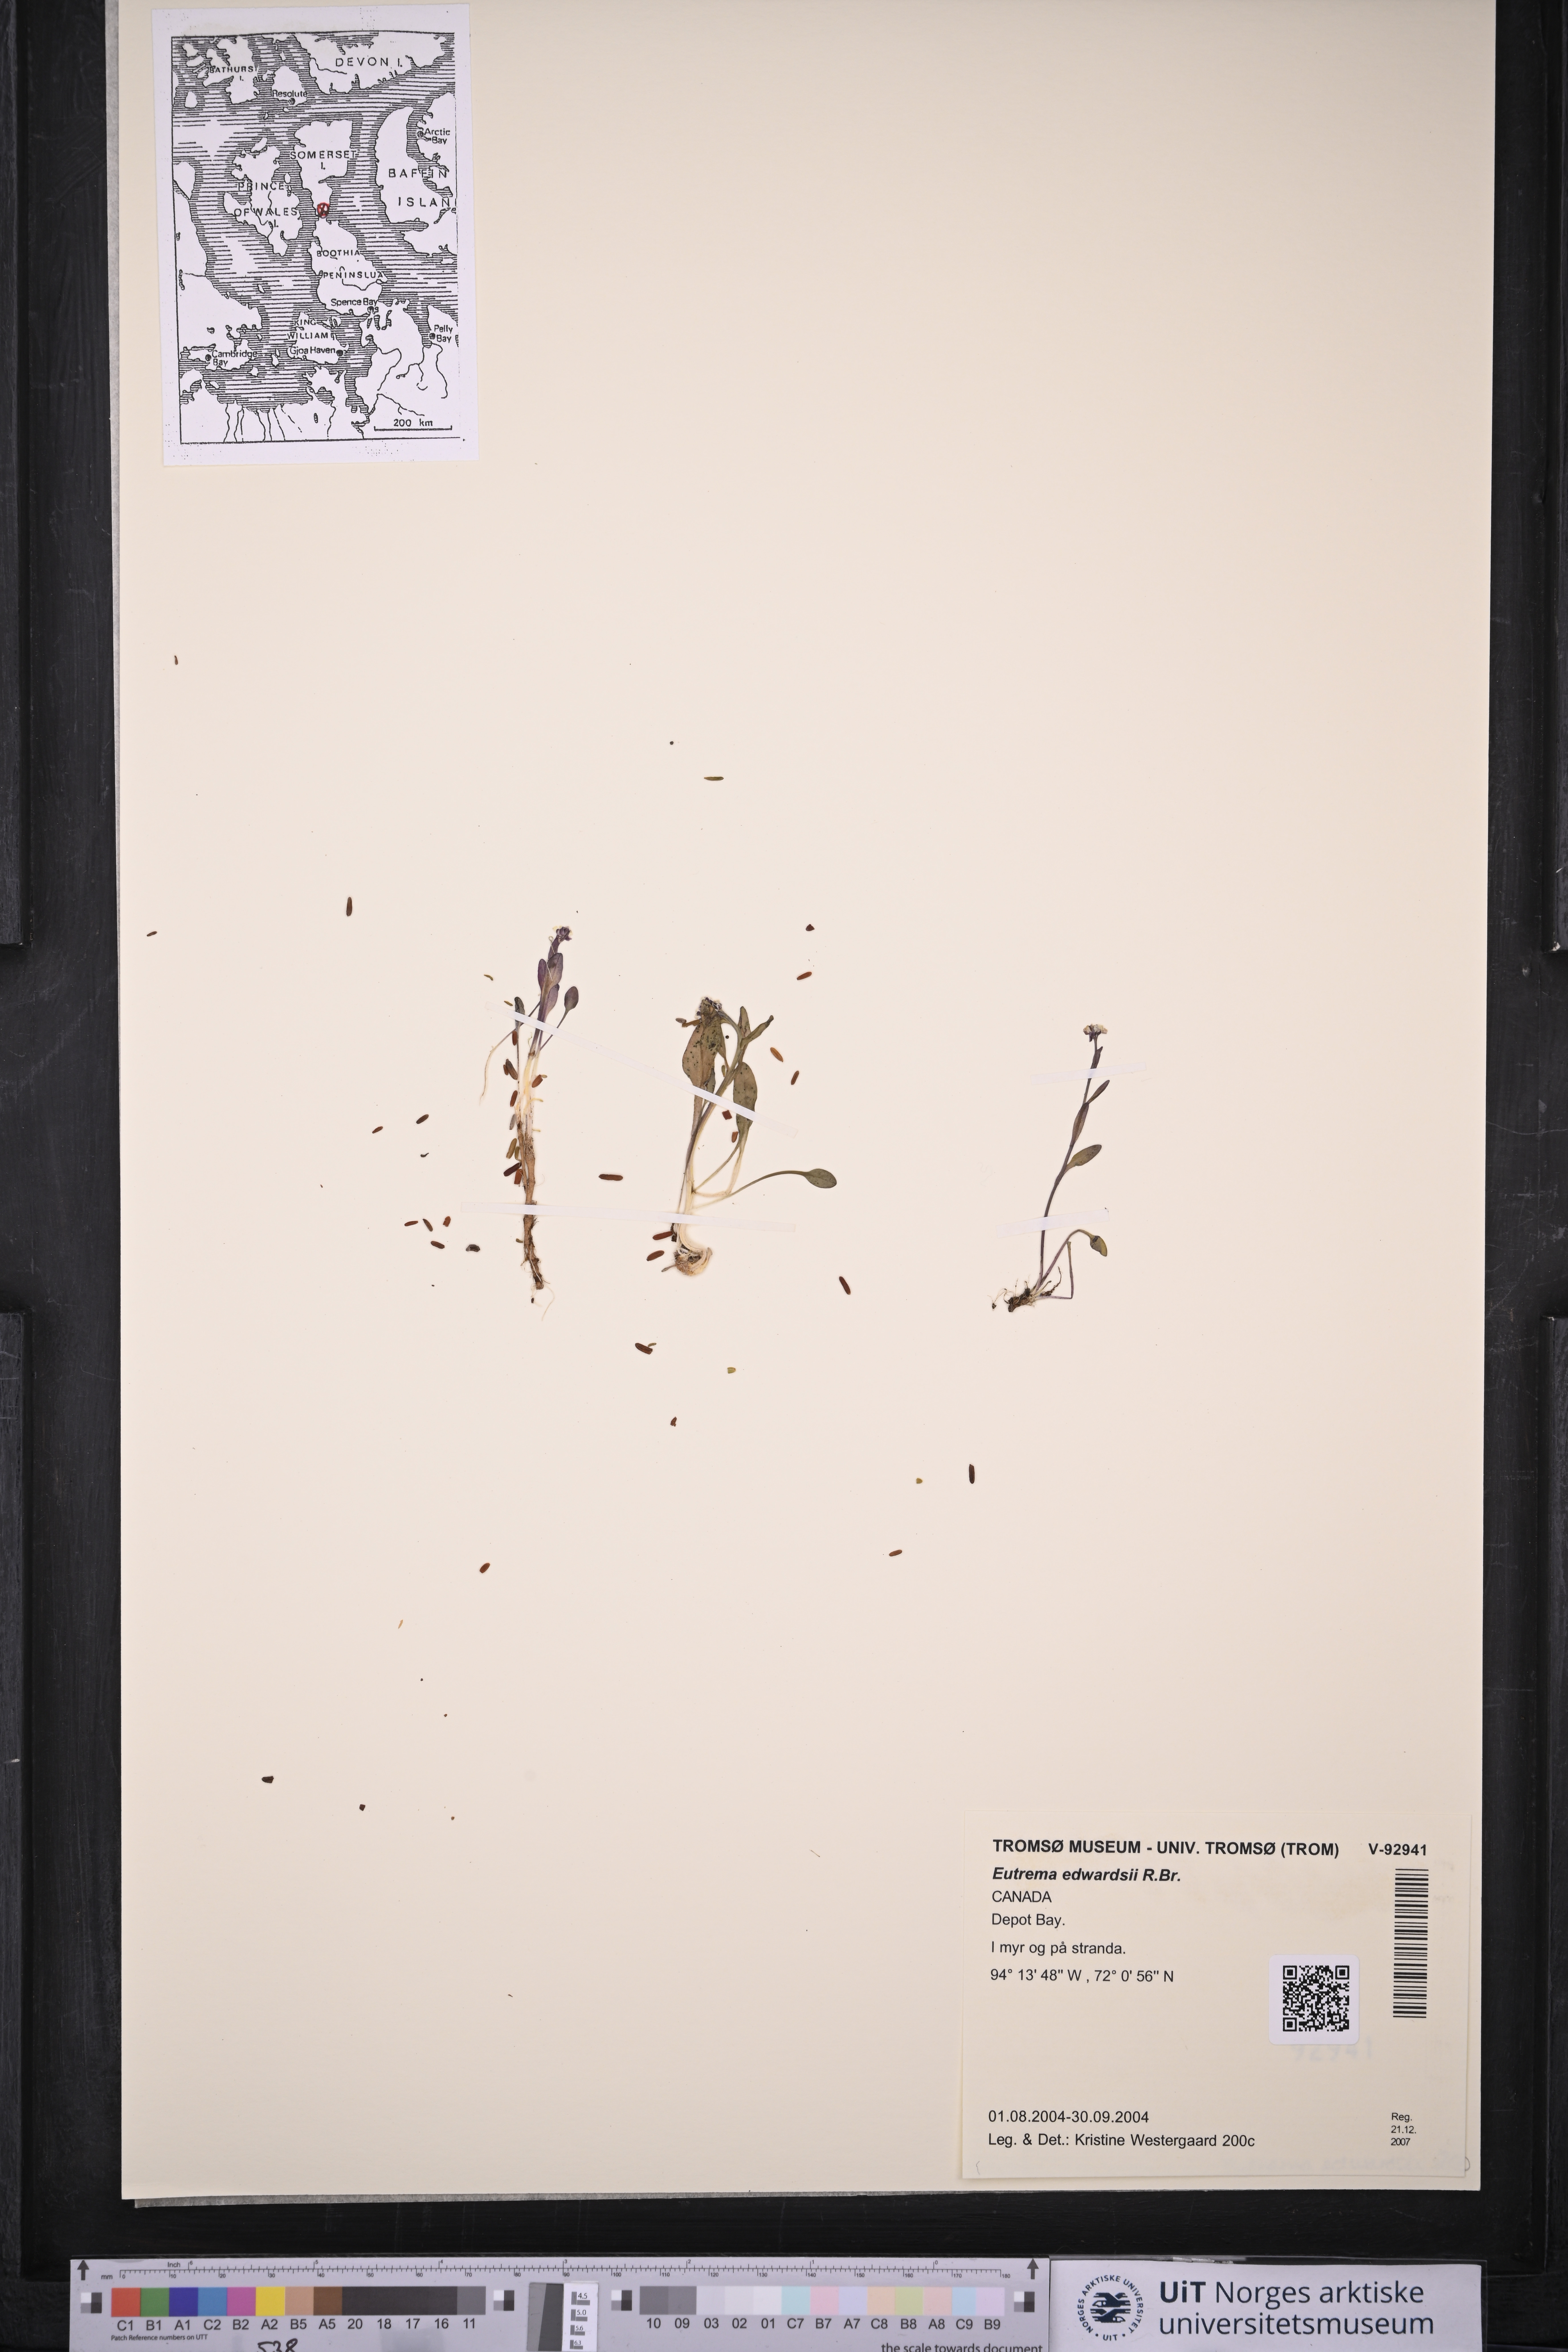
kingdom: Plantae
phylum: Tracheophyta
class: Magnoliopsida
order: Brassicales
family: Brassicaceae
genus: Eutrema
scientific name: Eutrema edwardsii
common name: Penland alpine fen mustard
